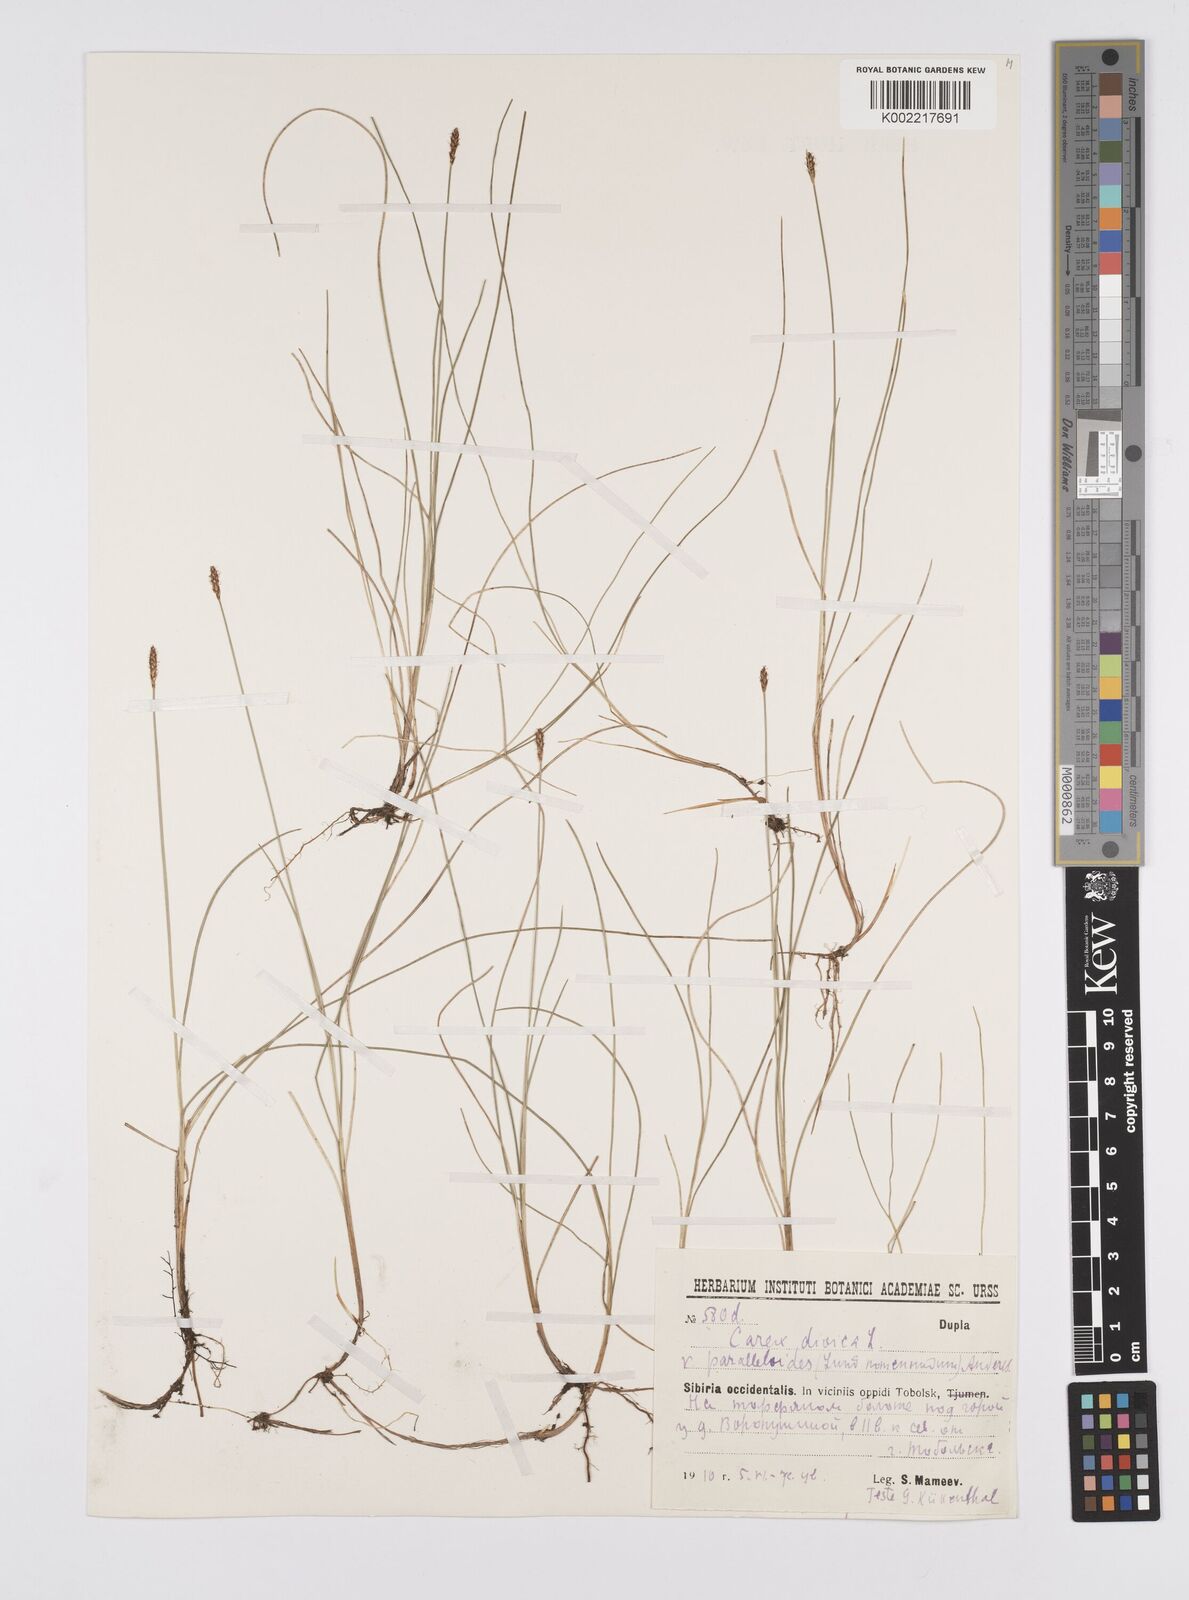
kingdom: Plantae
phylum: Tracheophyta
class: Liliopsida
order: Poales
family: Cyperaceae
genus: Carex
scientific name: Carex dioica
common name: Dioecious sedge
